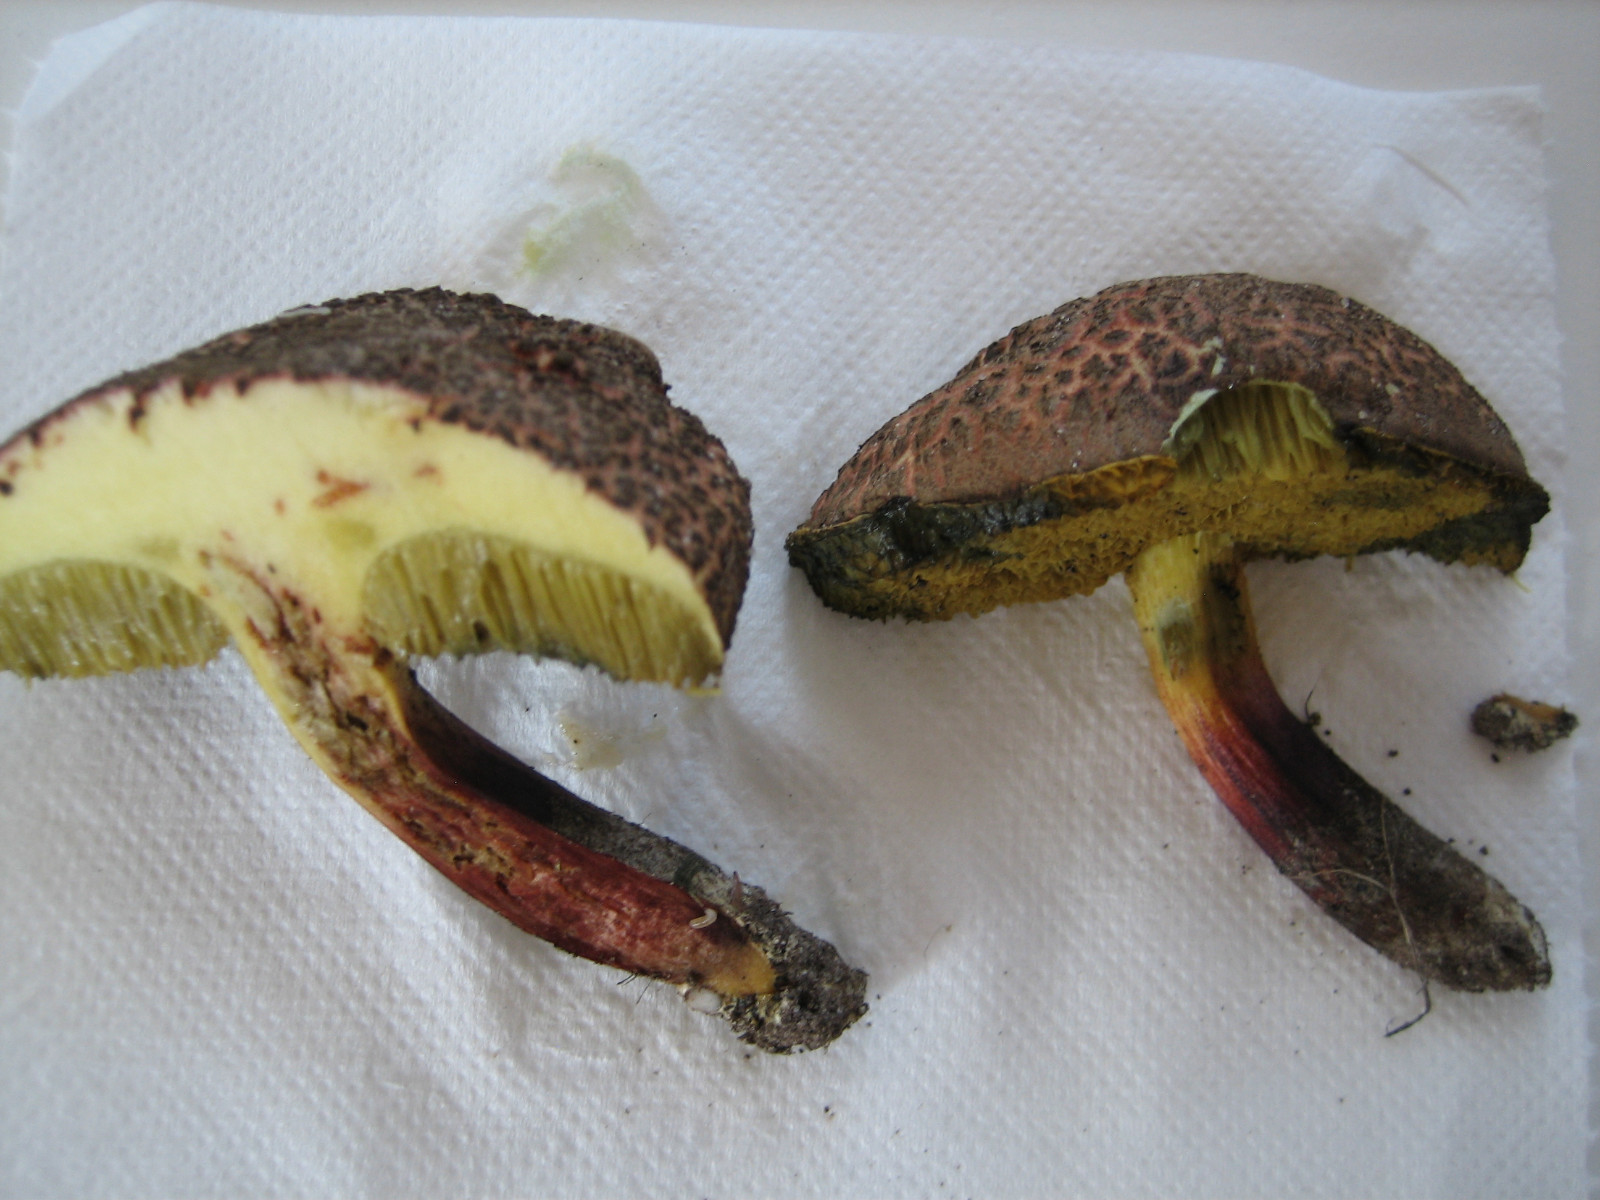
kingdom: Fungi
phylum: Basidiomycota
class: Agaricomycetes
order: Boletales
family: Boletaceae
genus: Xerocomellus
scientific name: Xerocomellus chrysenteron
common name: rødsprukken rørhat
